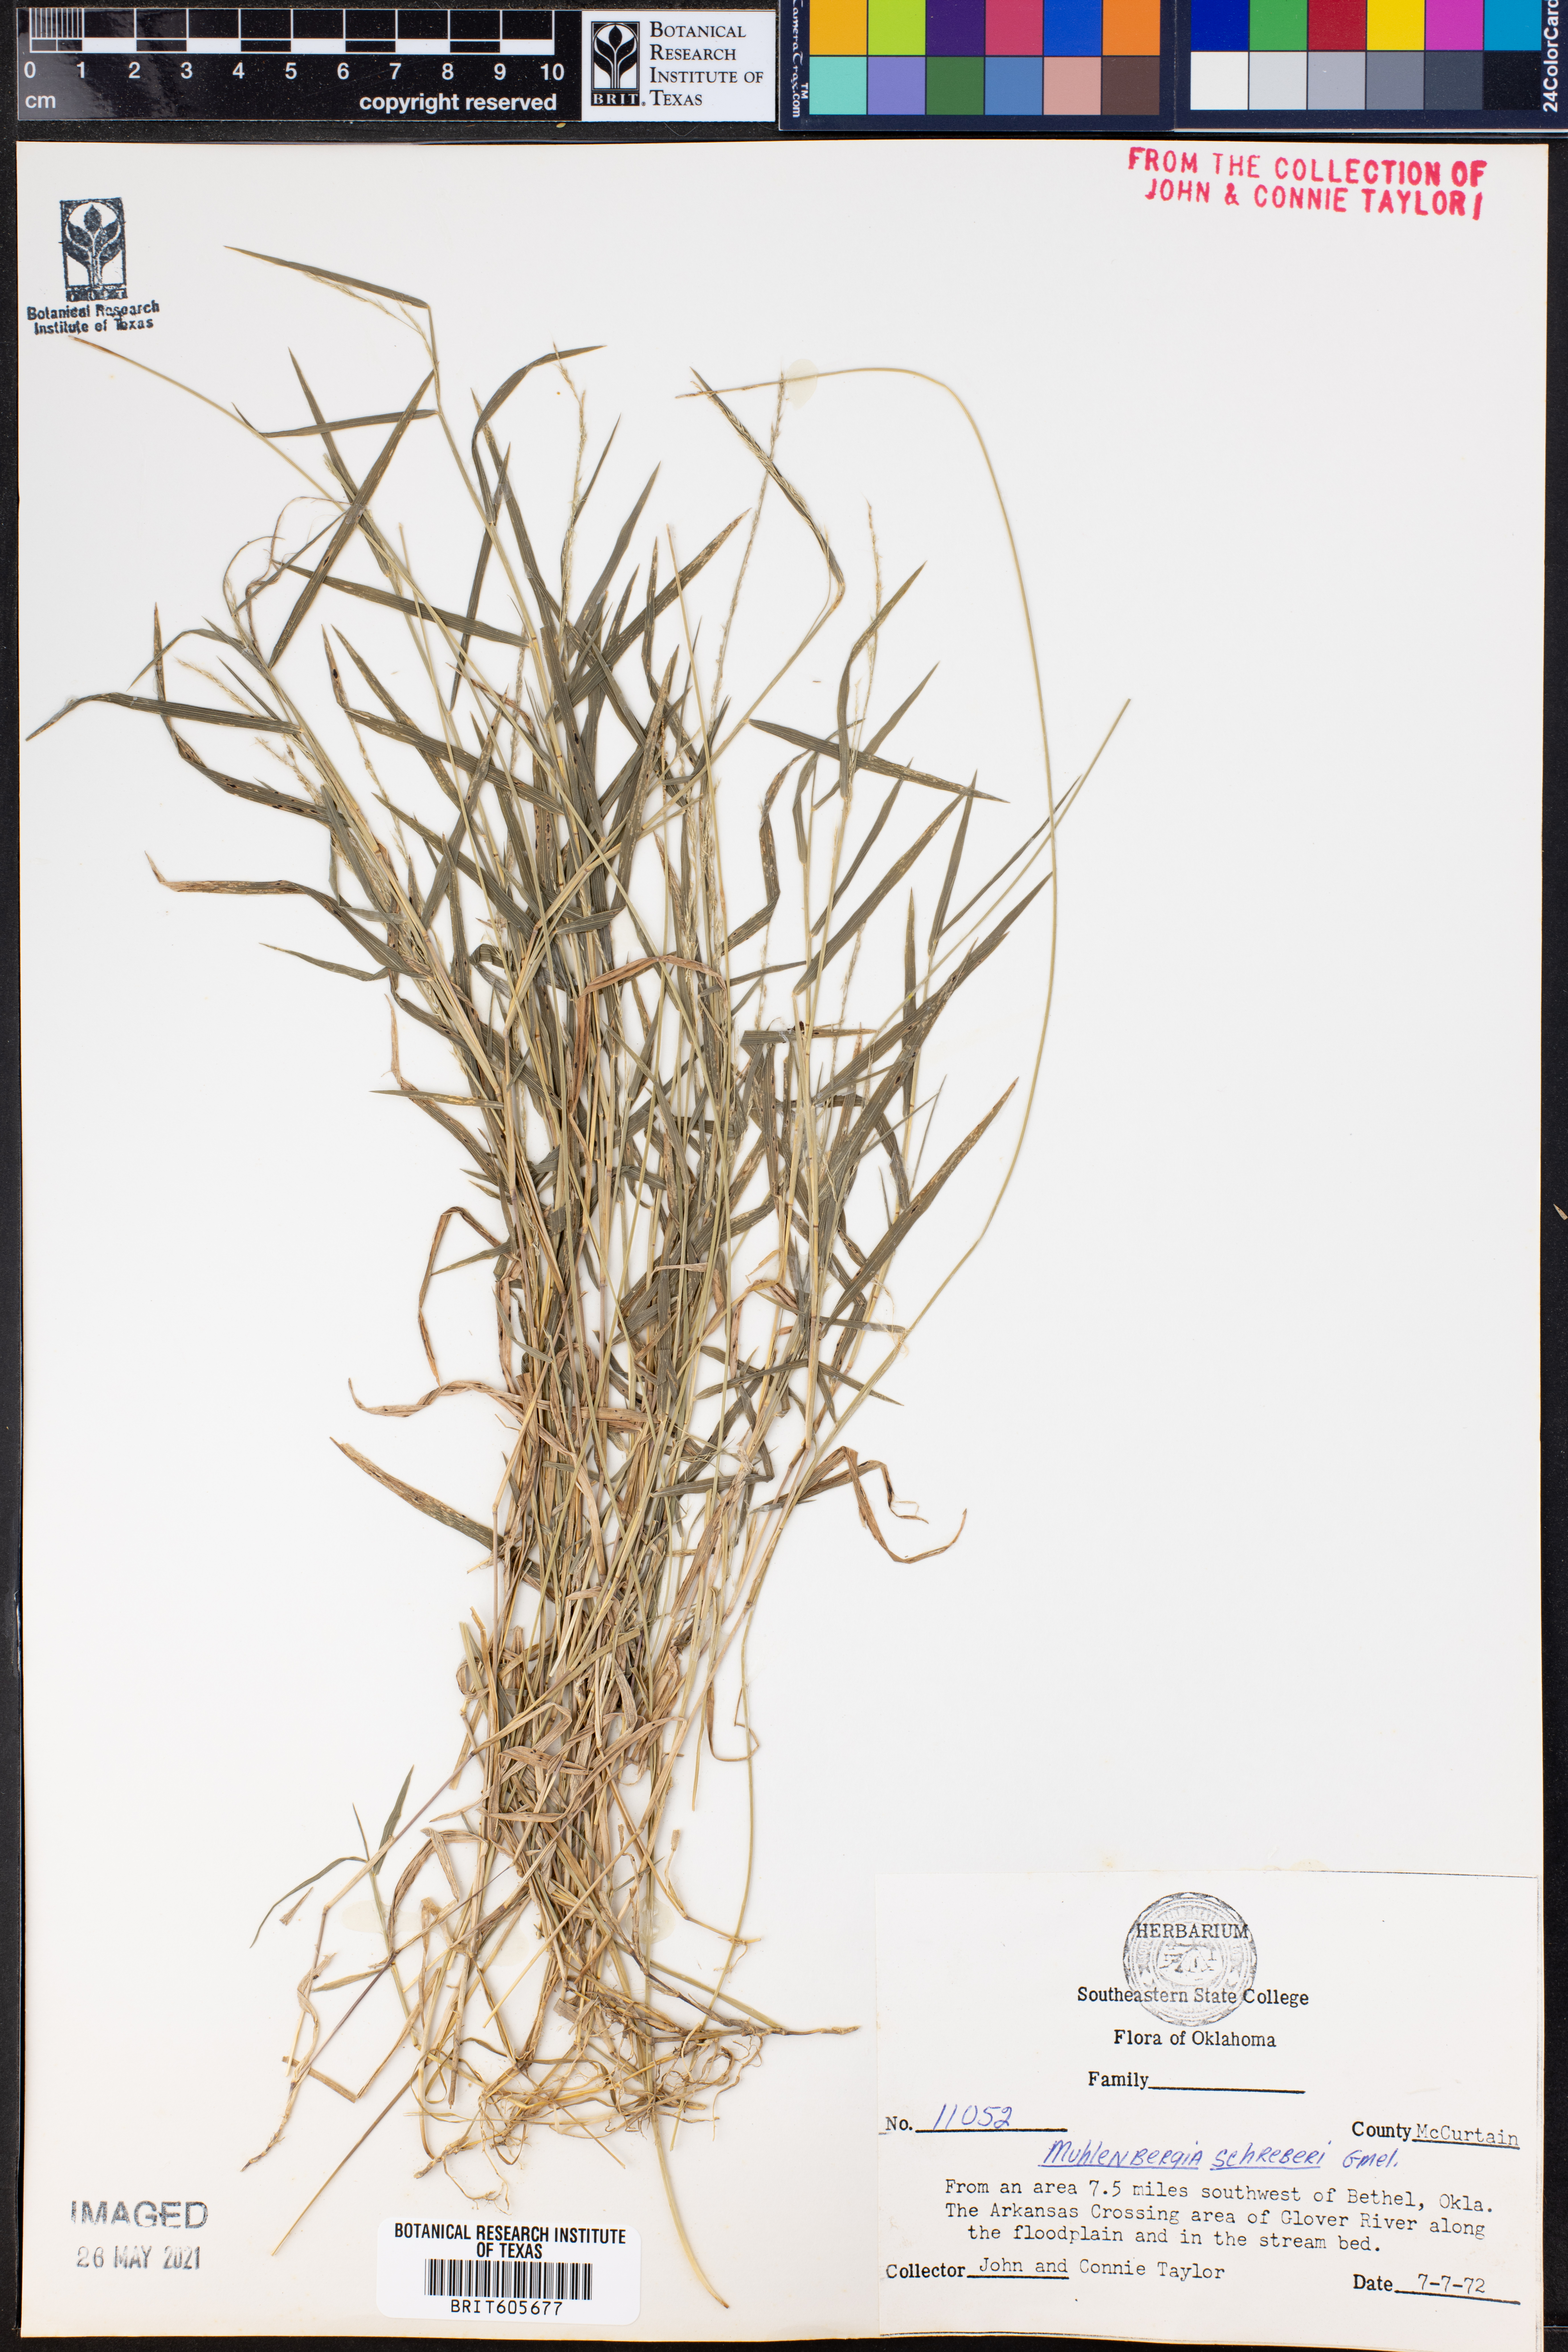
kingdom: Plantae
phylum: Tracheophyta
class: Liliopsida
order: Poales
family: Poaceae
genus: Muhlenbergia
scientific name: Muhlenbergia schreberi
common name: Nimblewill
